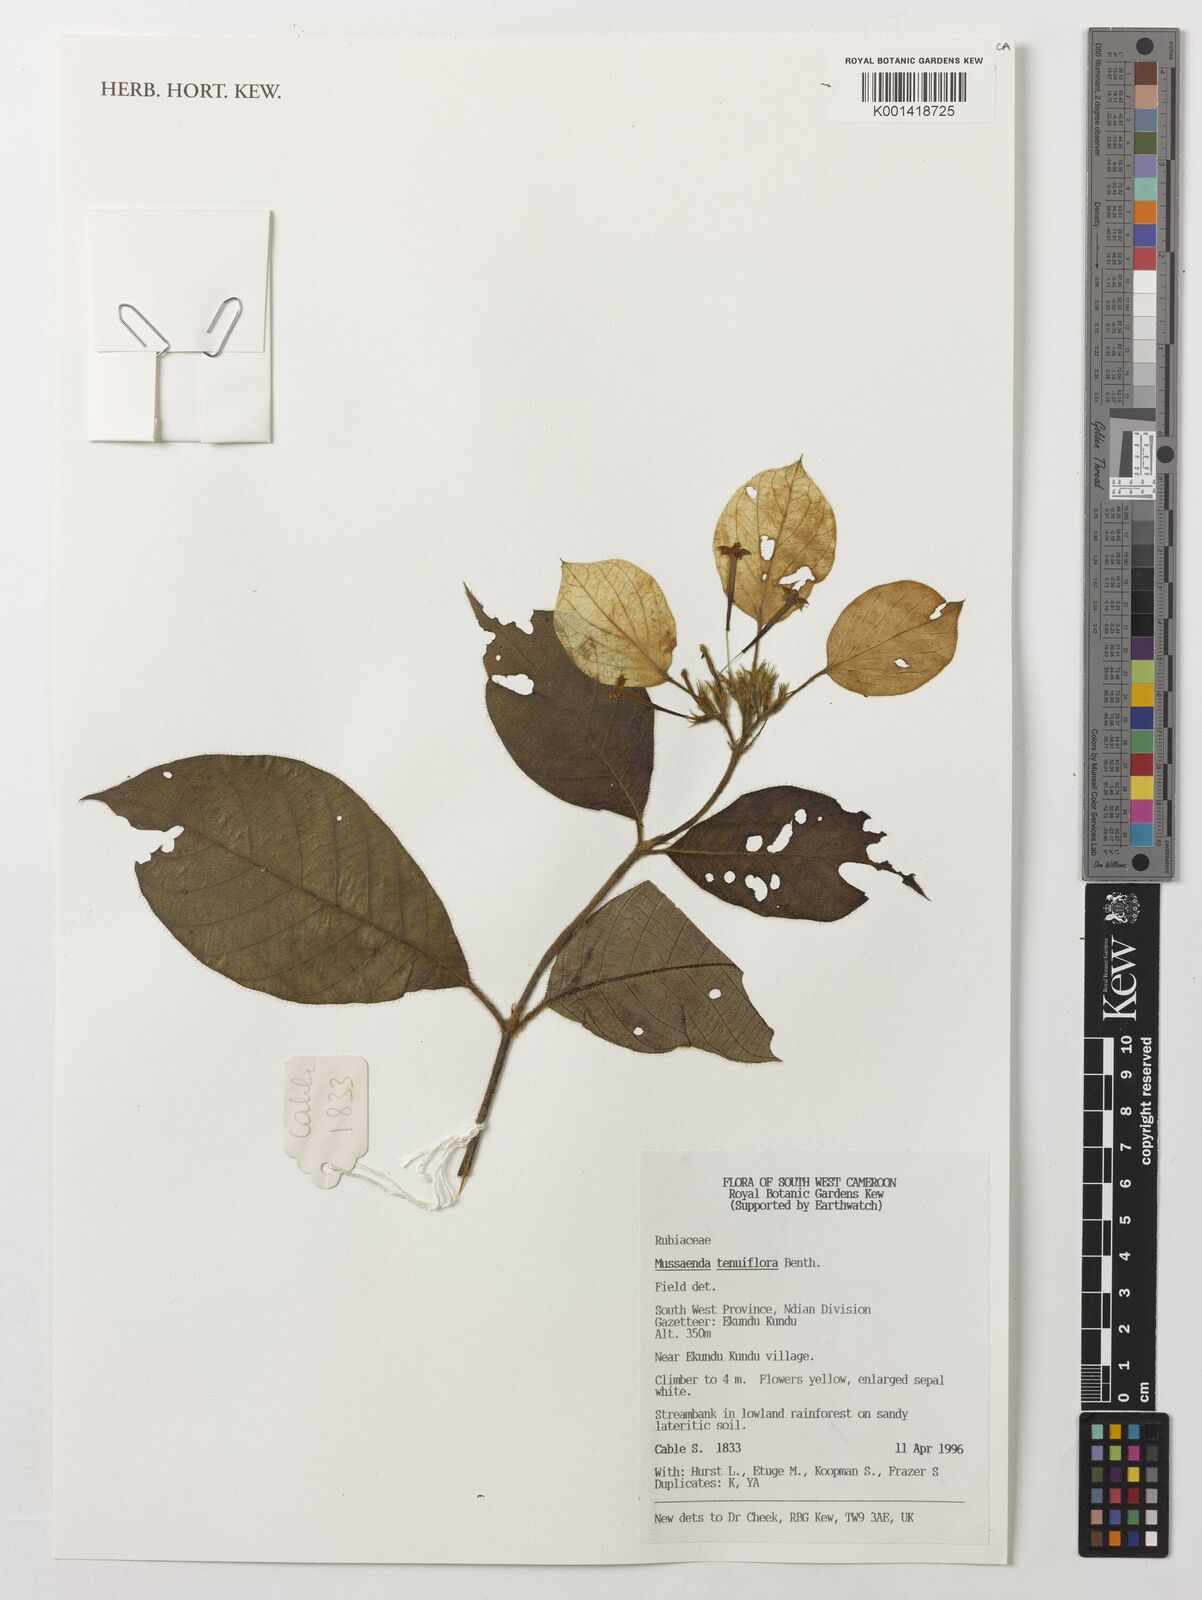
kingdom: Plantae
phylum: Tracheophyta
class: Magnoliopsida
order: Gentianales
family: Rubiaceae
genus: Mussaenda
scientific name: Mussaenda tenuiflora
